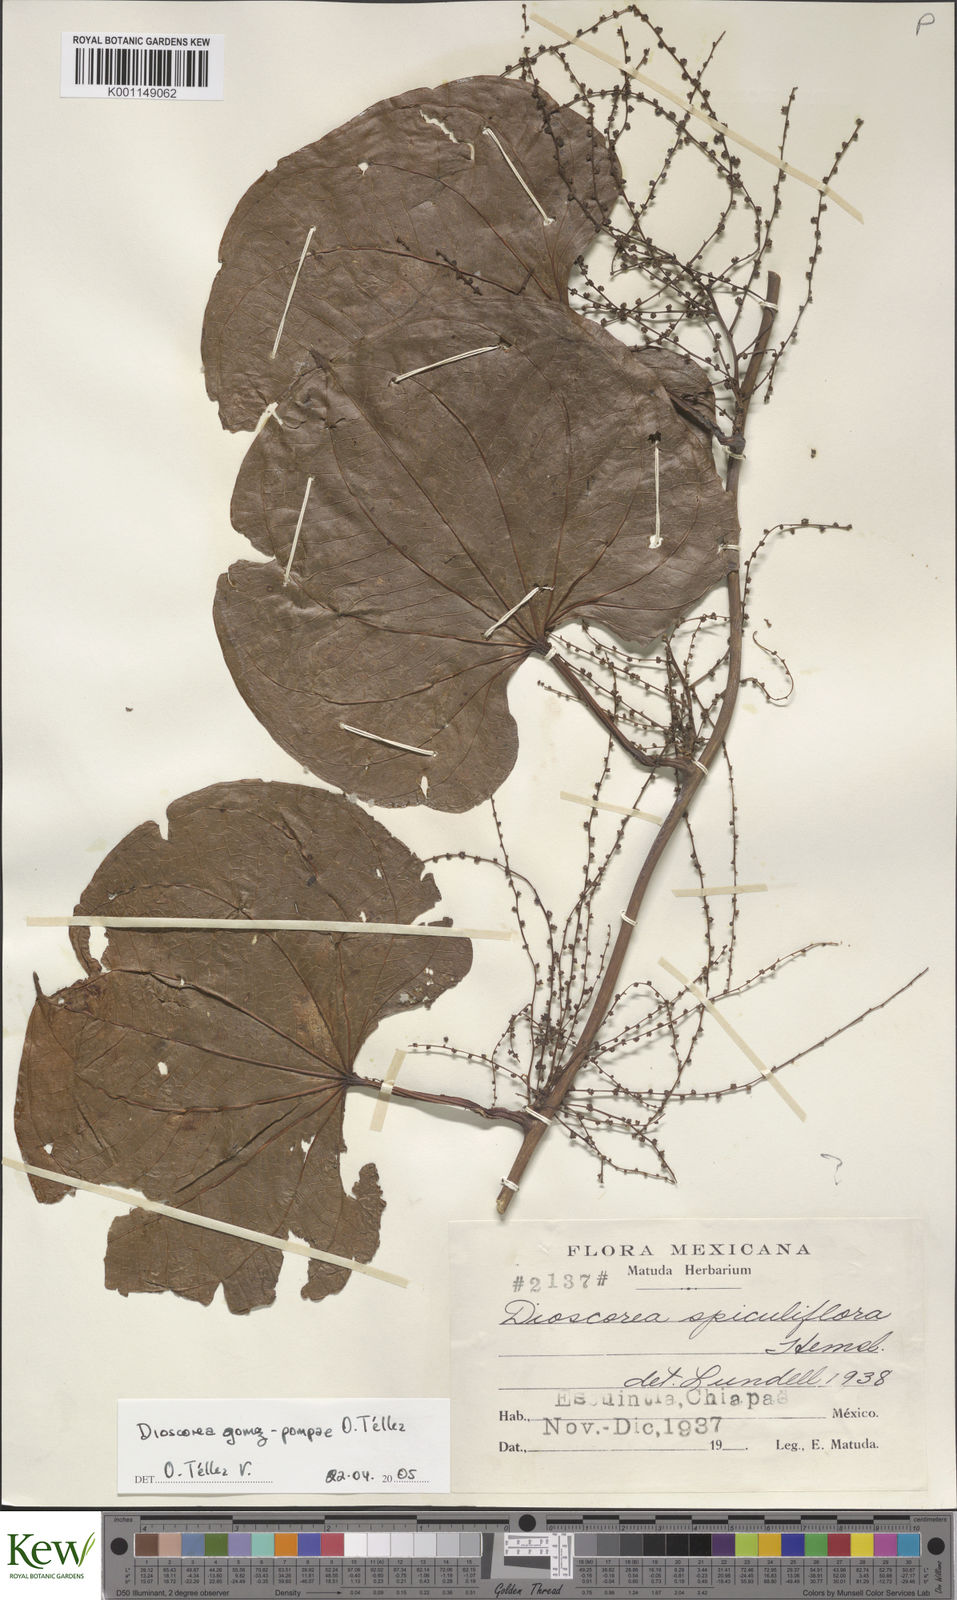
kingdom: Plantae
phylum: Tracheophyta
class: Liliopsida
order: Dioscoreales
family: Dioscoreaceae
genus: Dioscorea
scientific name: Dioscorea
